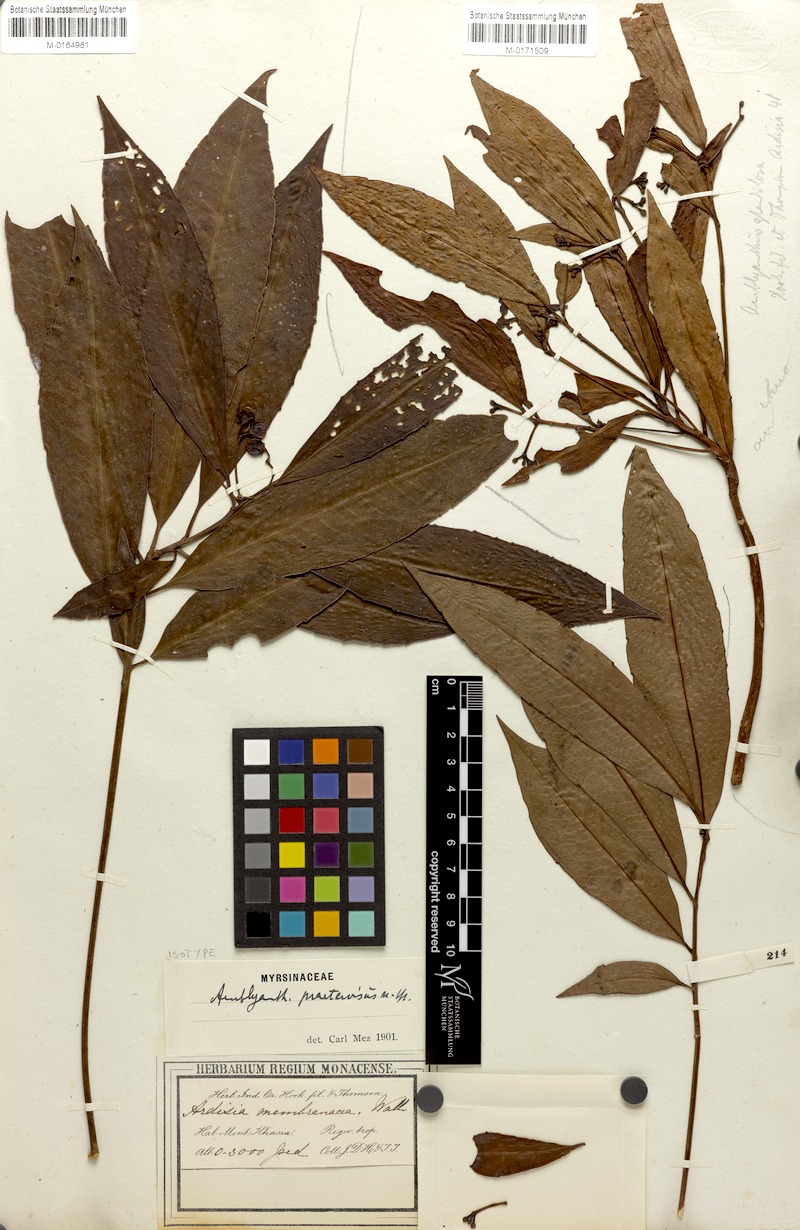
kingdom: Plantae
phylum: Tracheophyta
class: Magnoliopsida
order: Ericales
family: Primulaceae
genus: Amblyanthus
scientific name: Amblyanthus glandulosus
